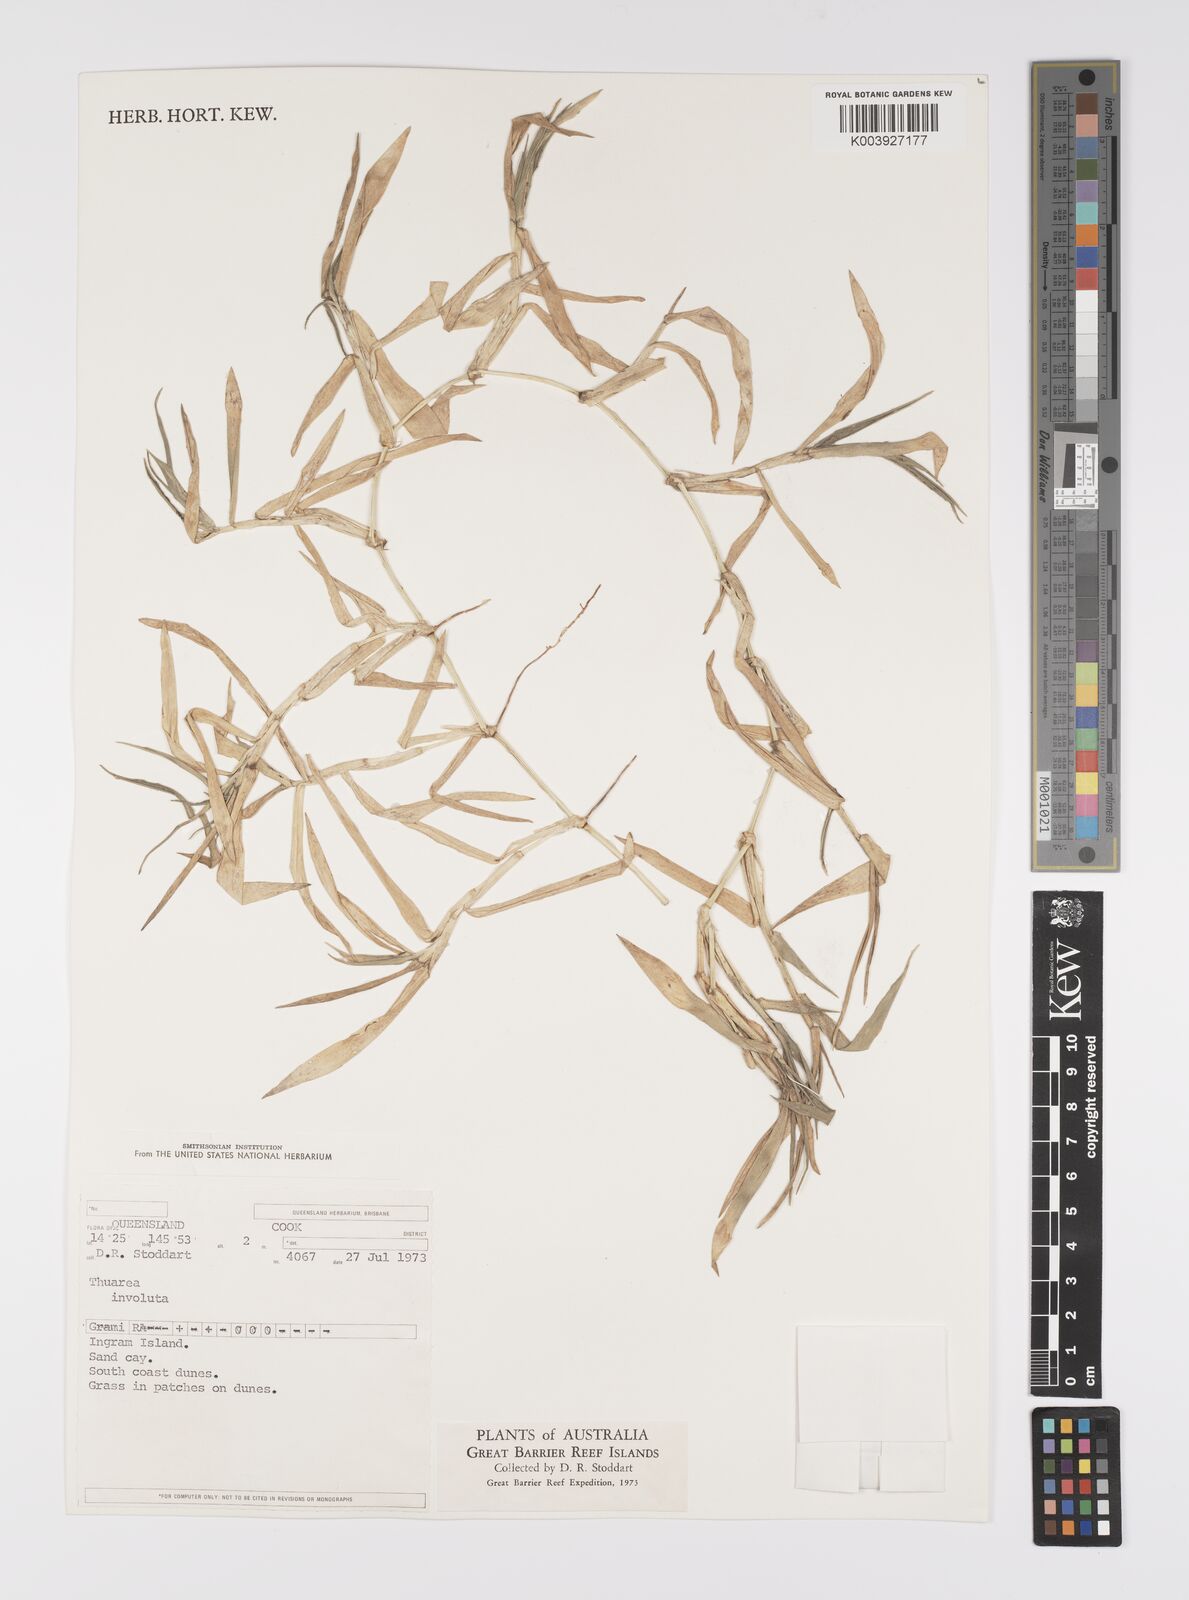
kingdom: Plantae
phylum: Tracheophyta
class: Liliopsida
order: Poales
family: Poaceae
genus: Thuarea
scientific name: Thuarea involuta
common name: Tropical beach grass
